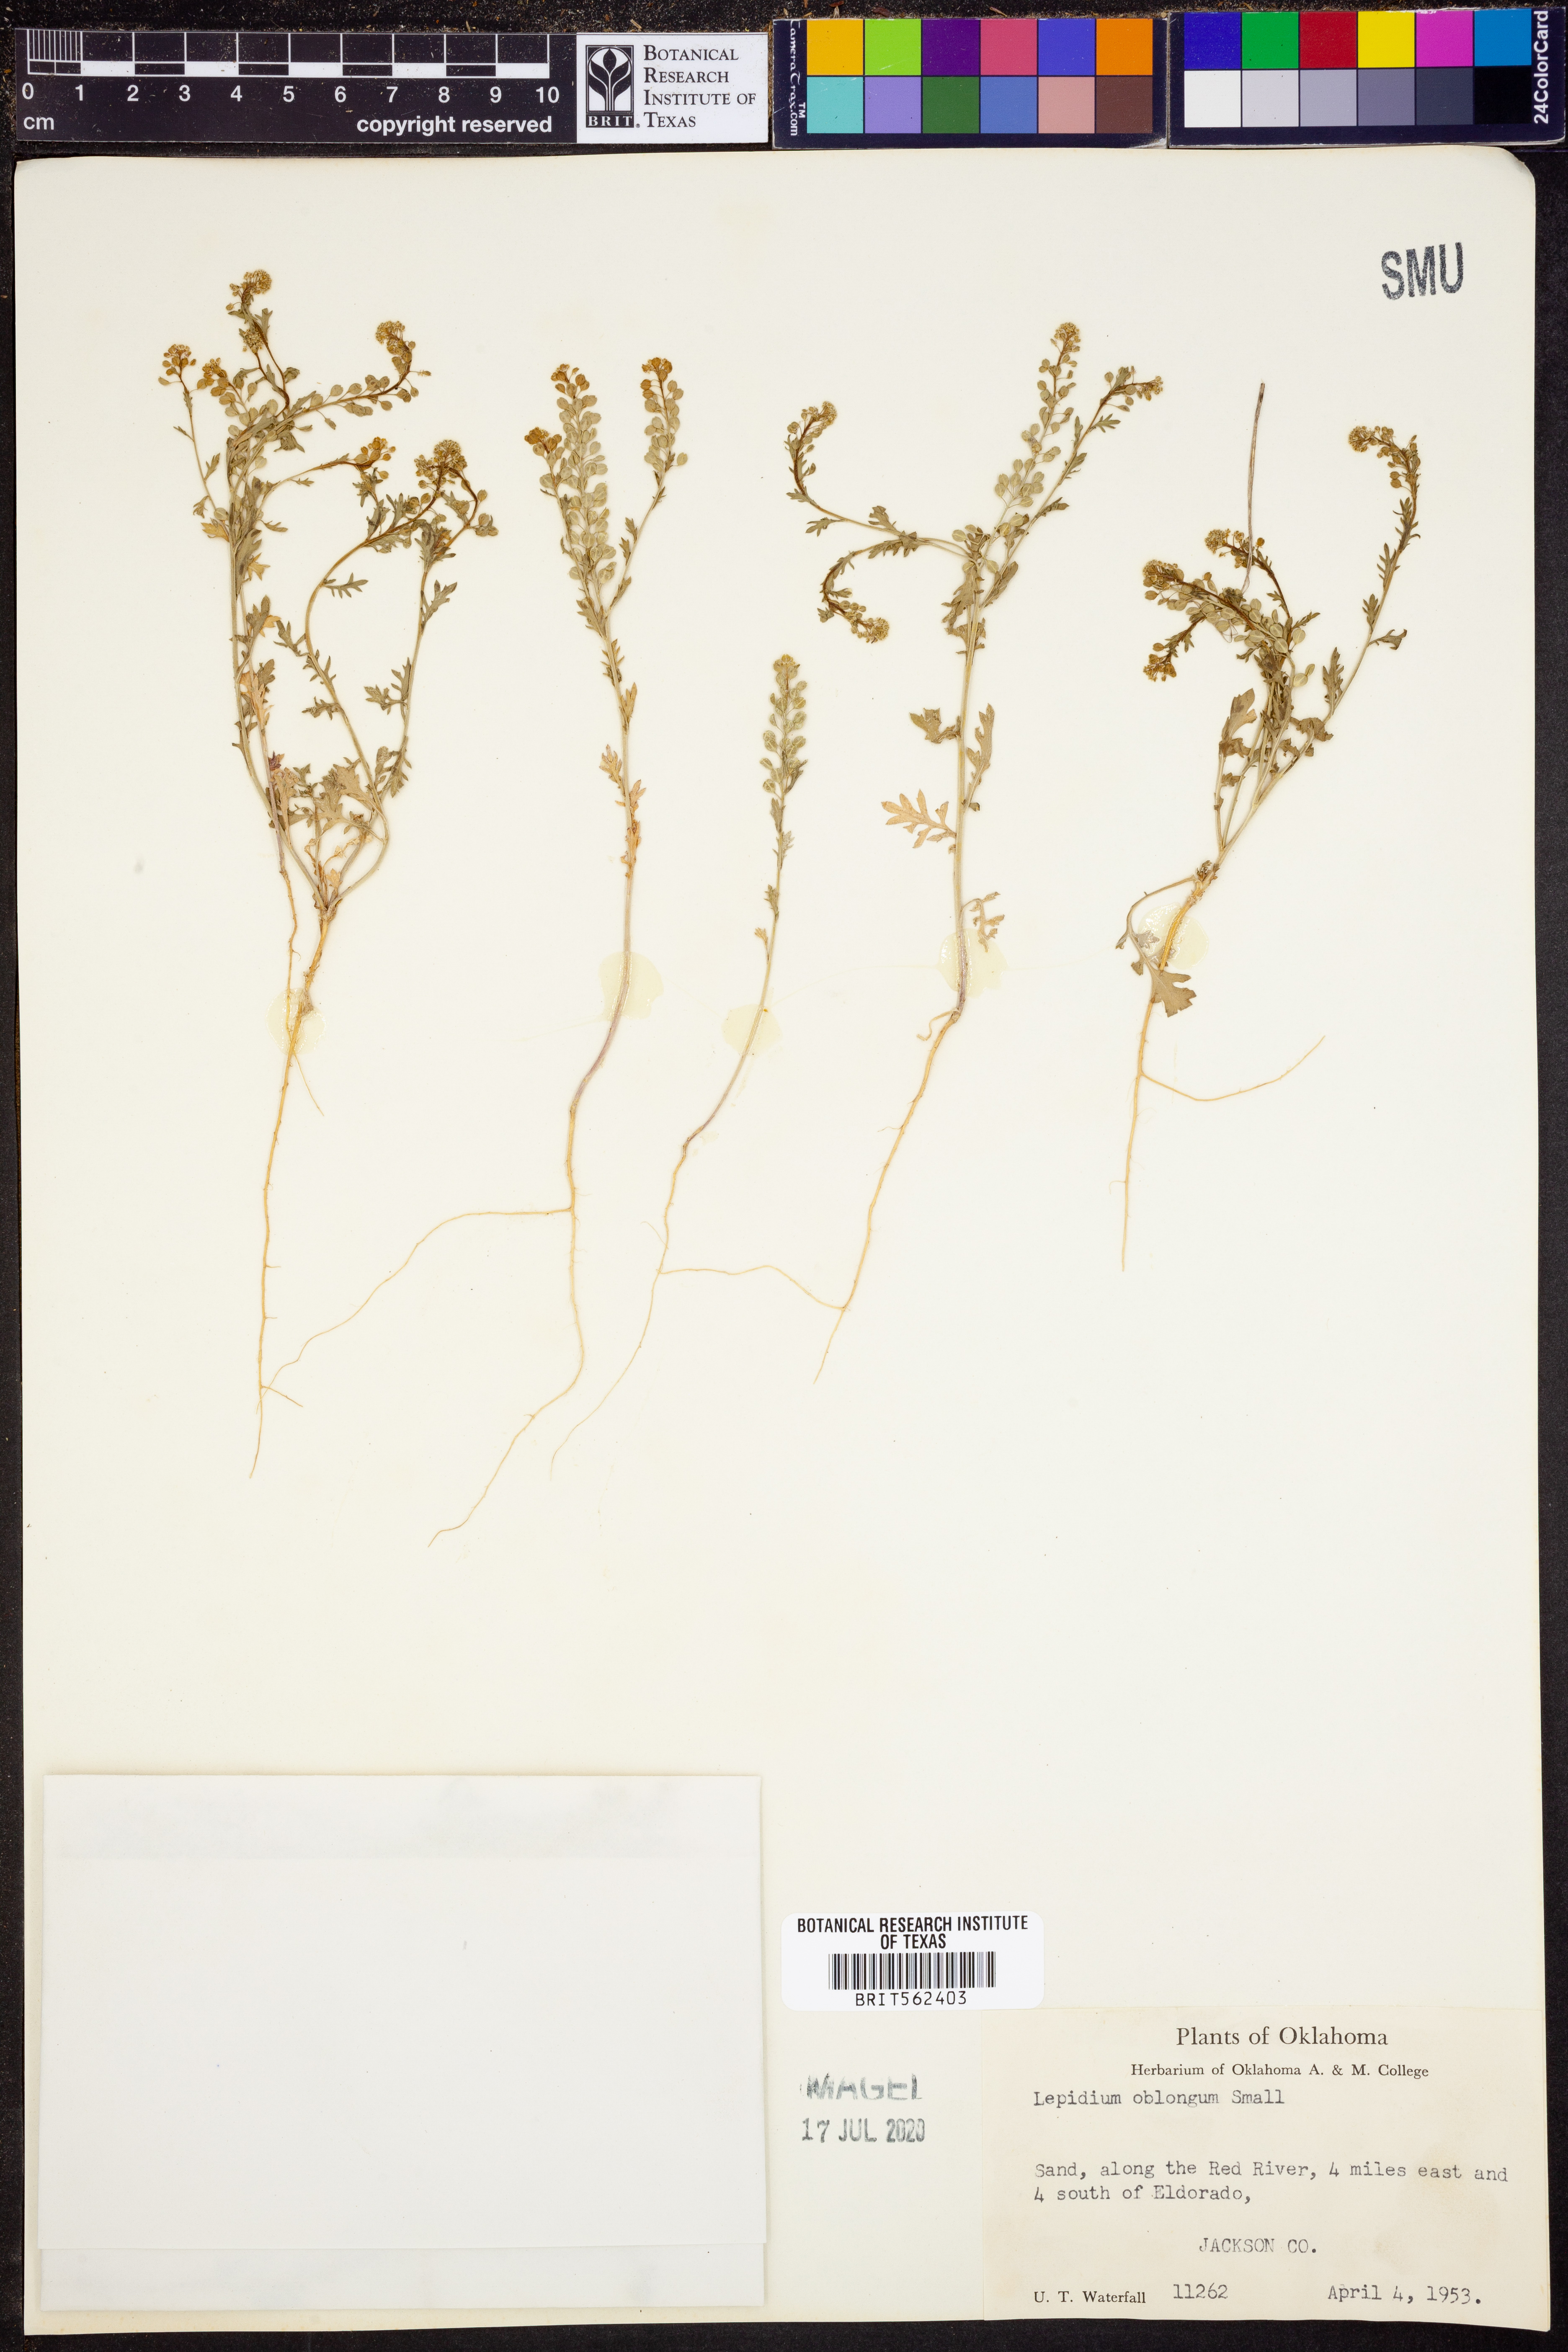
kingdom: Plantae
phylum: Tracheophyta
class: Magnoliopsida
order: Brassicales
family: Brassicaceae
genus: Lepidium
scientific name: Lepidium oblongum
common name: Veiny pepperweed
